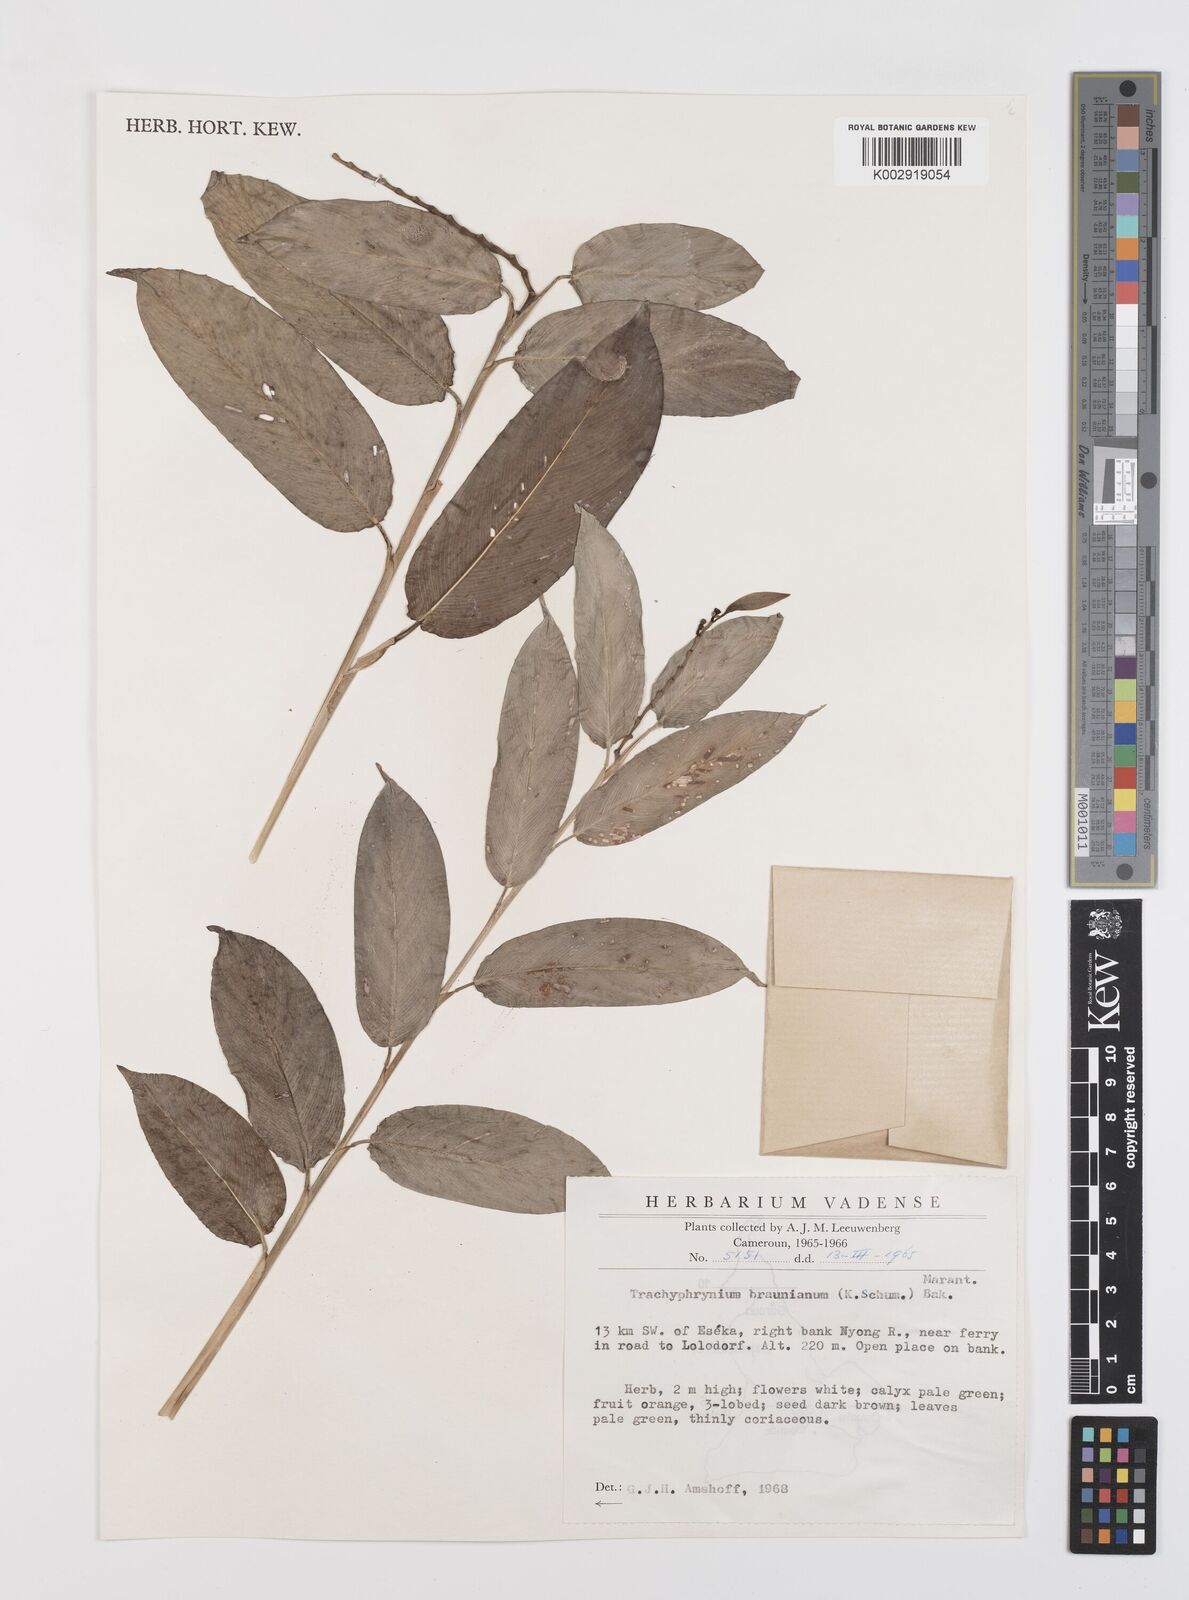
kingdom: Plantae
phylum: Tracheophyta
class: Liliopsida
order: Zingiberales
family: Marantaceae
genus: Trachyphrynium
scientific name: Trachyphrynium braunianum
